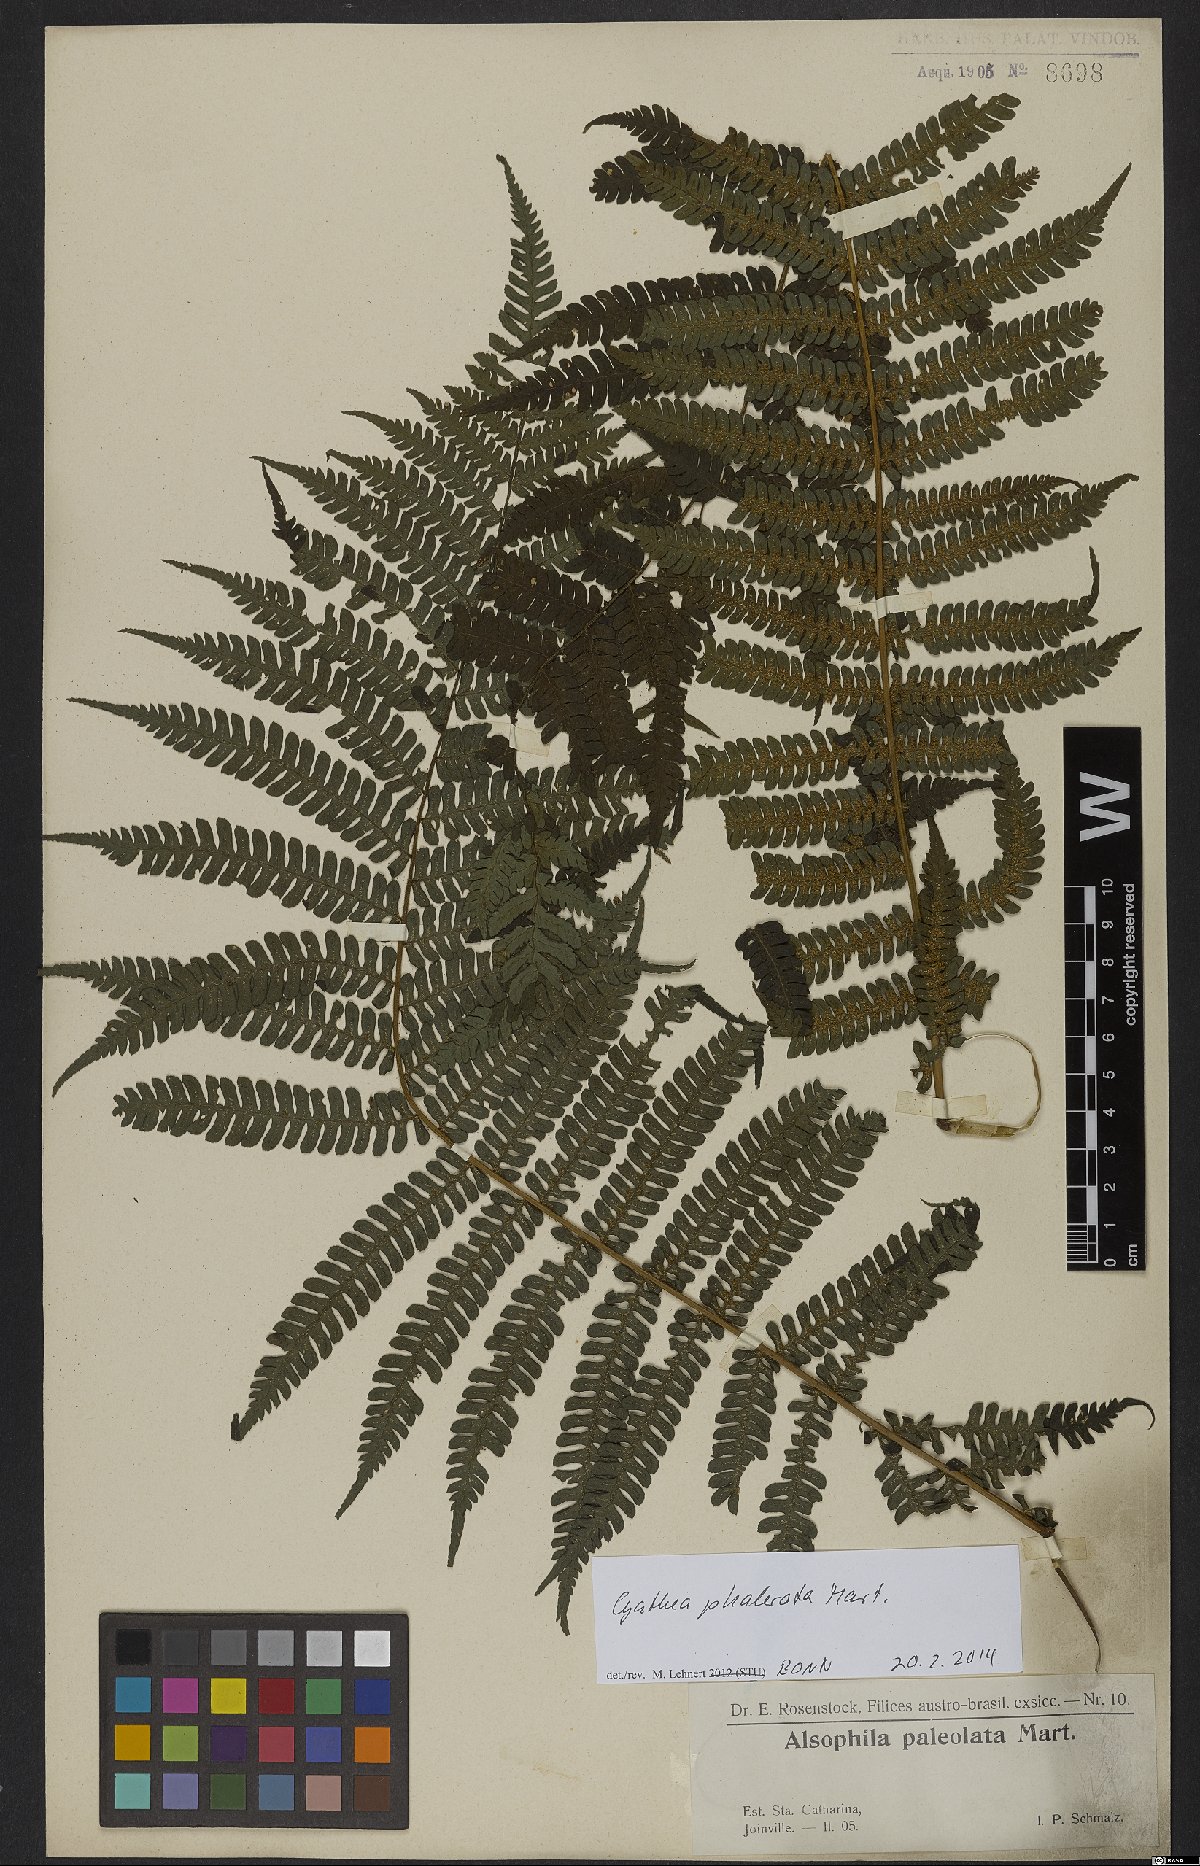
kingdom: Plantae
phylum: Tracheophyta
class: Polypodiopsida
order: Cyatheales
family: Cyatheaceae
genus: Cyathea
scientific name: Cyathea phalerata
